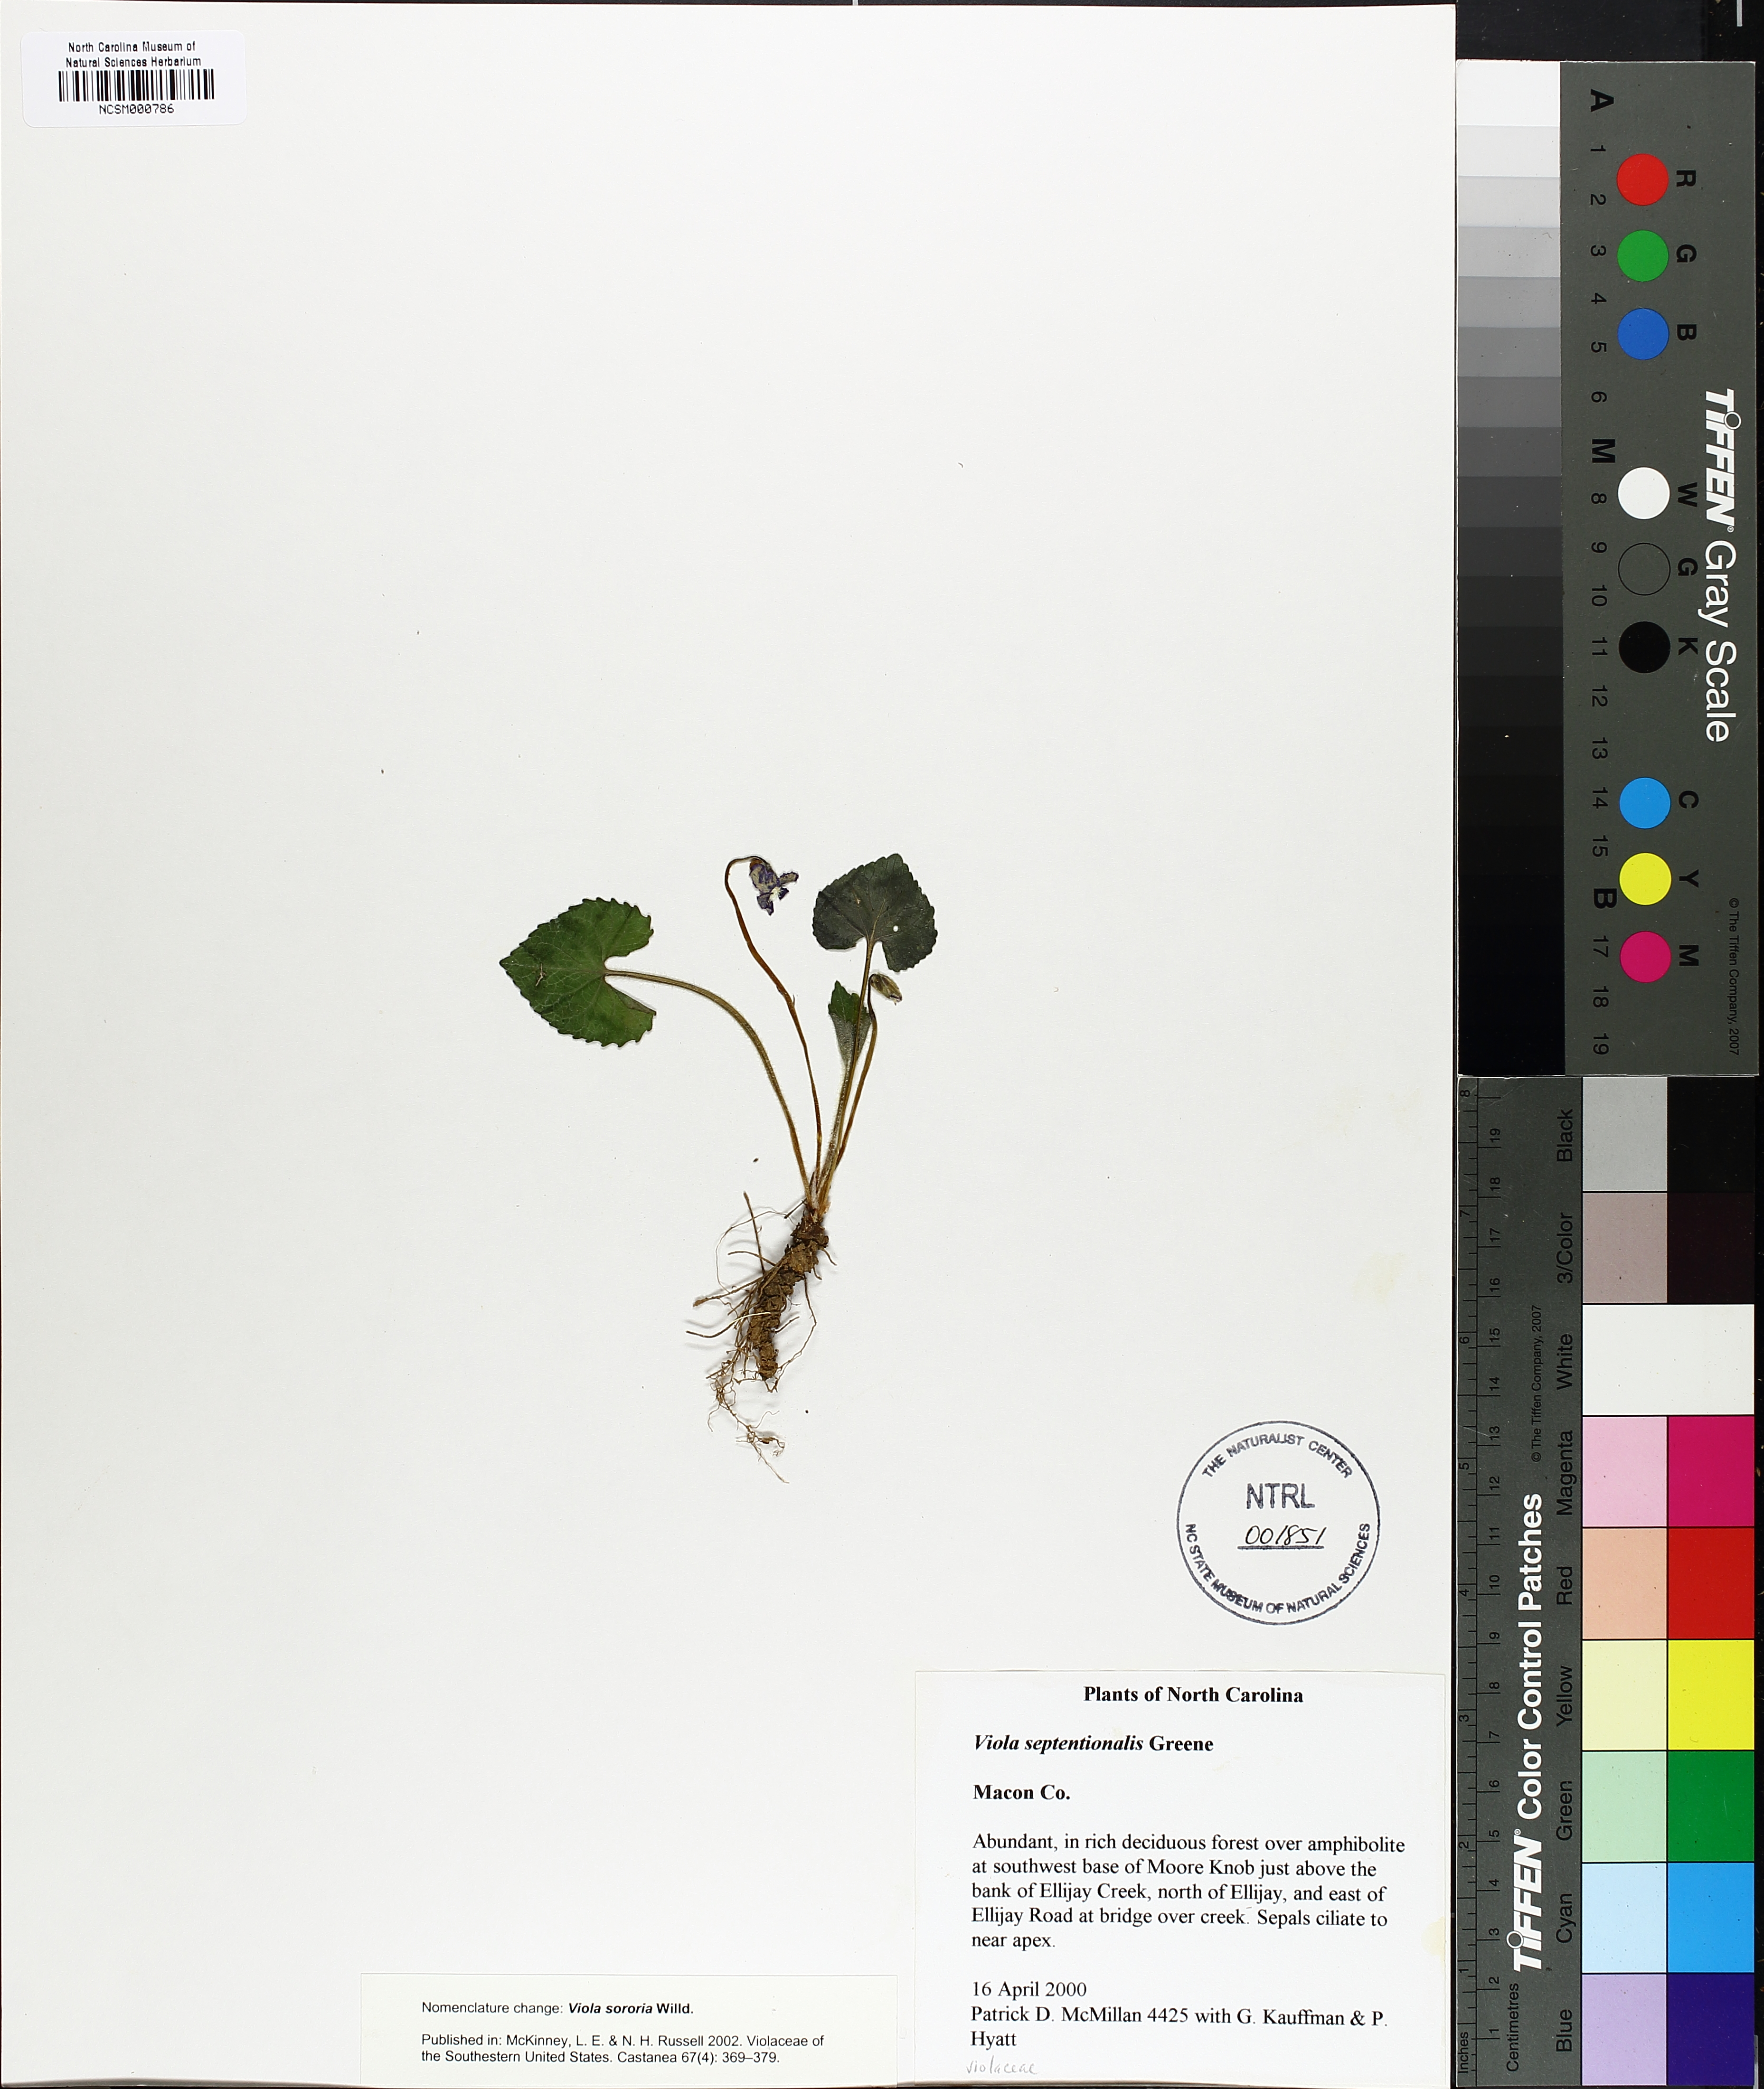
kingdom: Plantae
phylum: Tracheophyta
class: Magnoliopsida
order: Malpighiales
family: Violaceae
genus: Viola
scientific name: Viola sororia
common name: Dooryard violet
